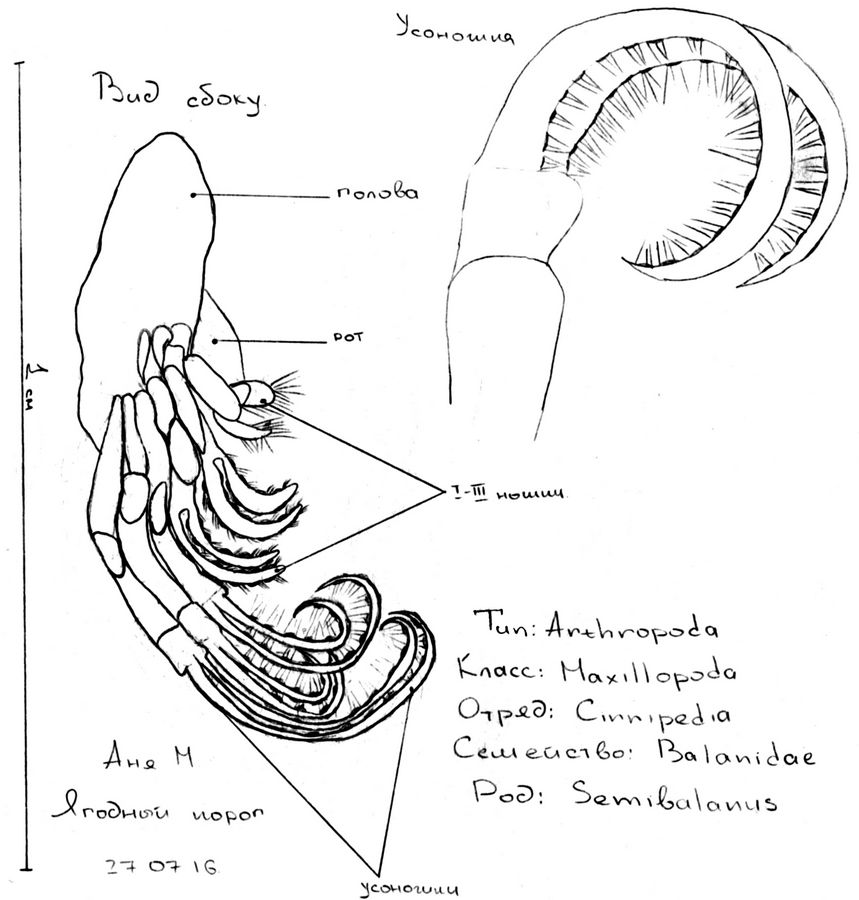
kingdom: Animalia
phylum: Arthropoda
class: Maxillopoda
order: Sessilia
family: Archaeobalanidae
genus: Semibalanus
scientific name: Semibalanus
